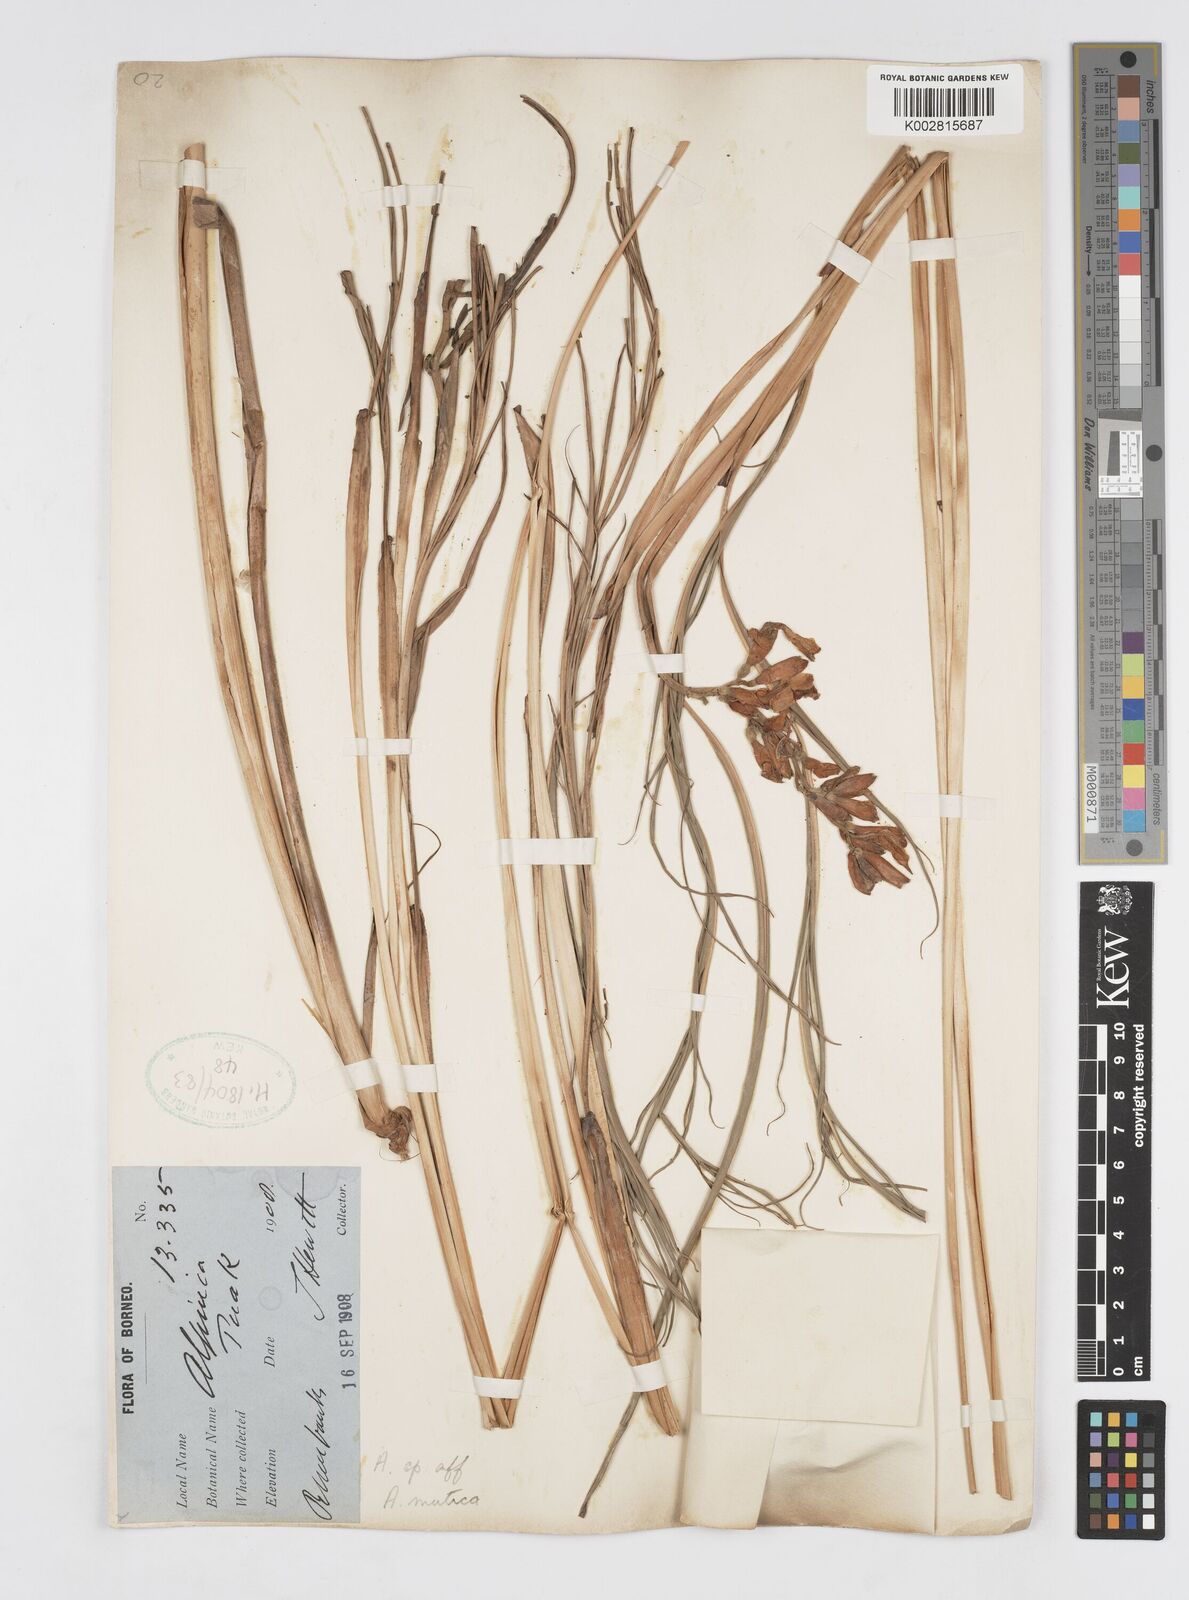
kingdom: Plantae
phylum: Tracheophyta
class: Liliopsida
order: Zingiberales
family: Zingiberaceae
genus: Alpinia
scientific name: Alpinia mutica
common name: Small shell ginger
